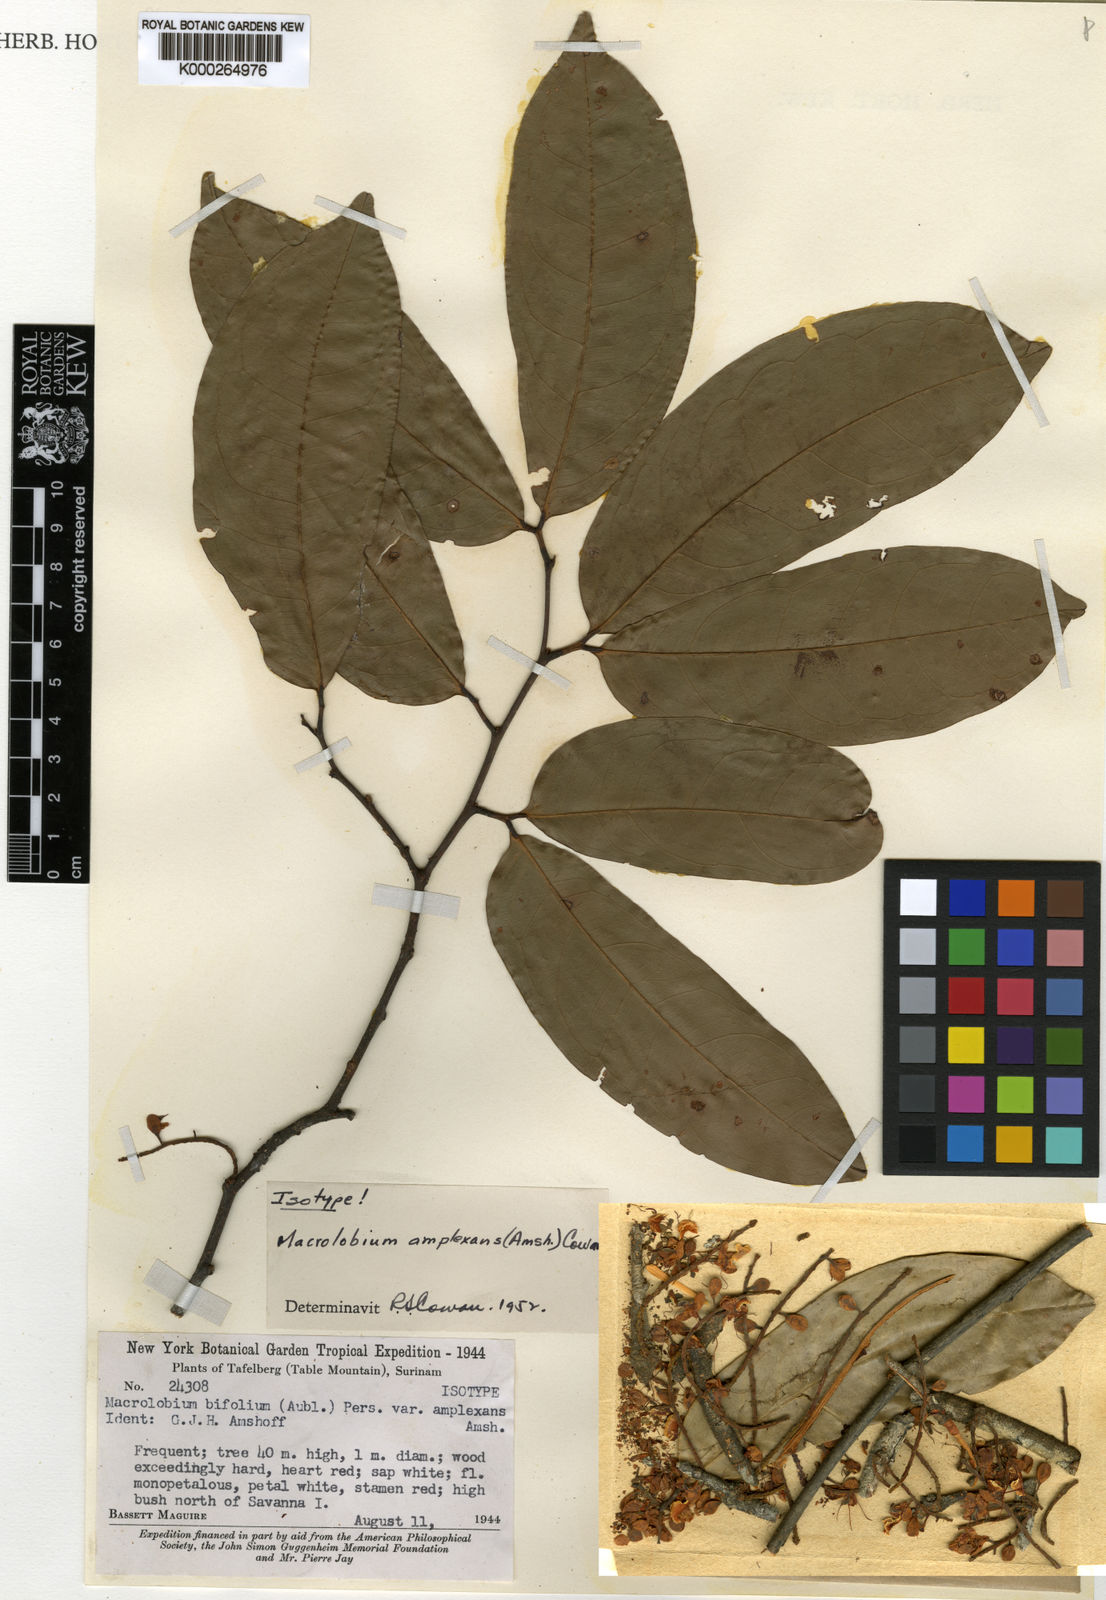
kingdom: Plantae
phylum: Tracheophyta
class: Magnoliopsida
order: Fabales
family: Fabaceae
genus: Macrolobium
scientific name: Macrolobium amplexans
